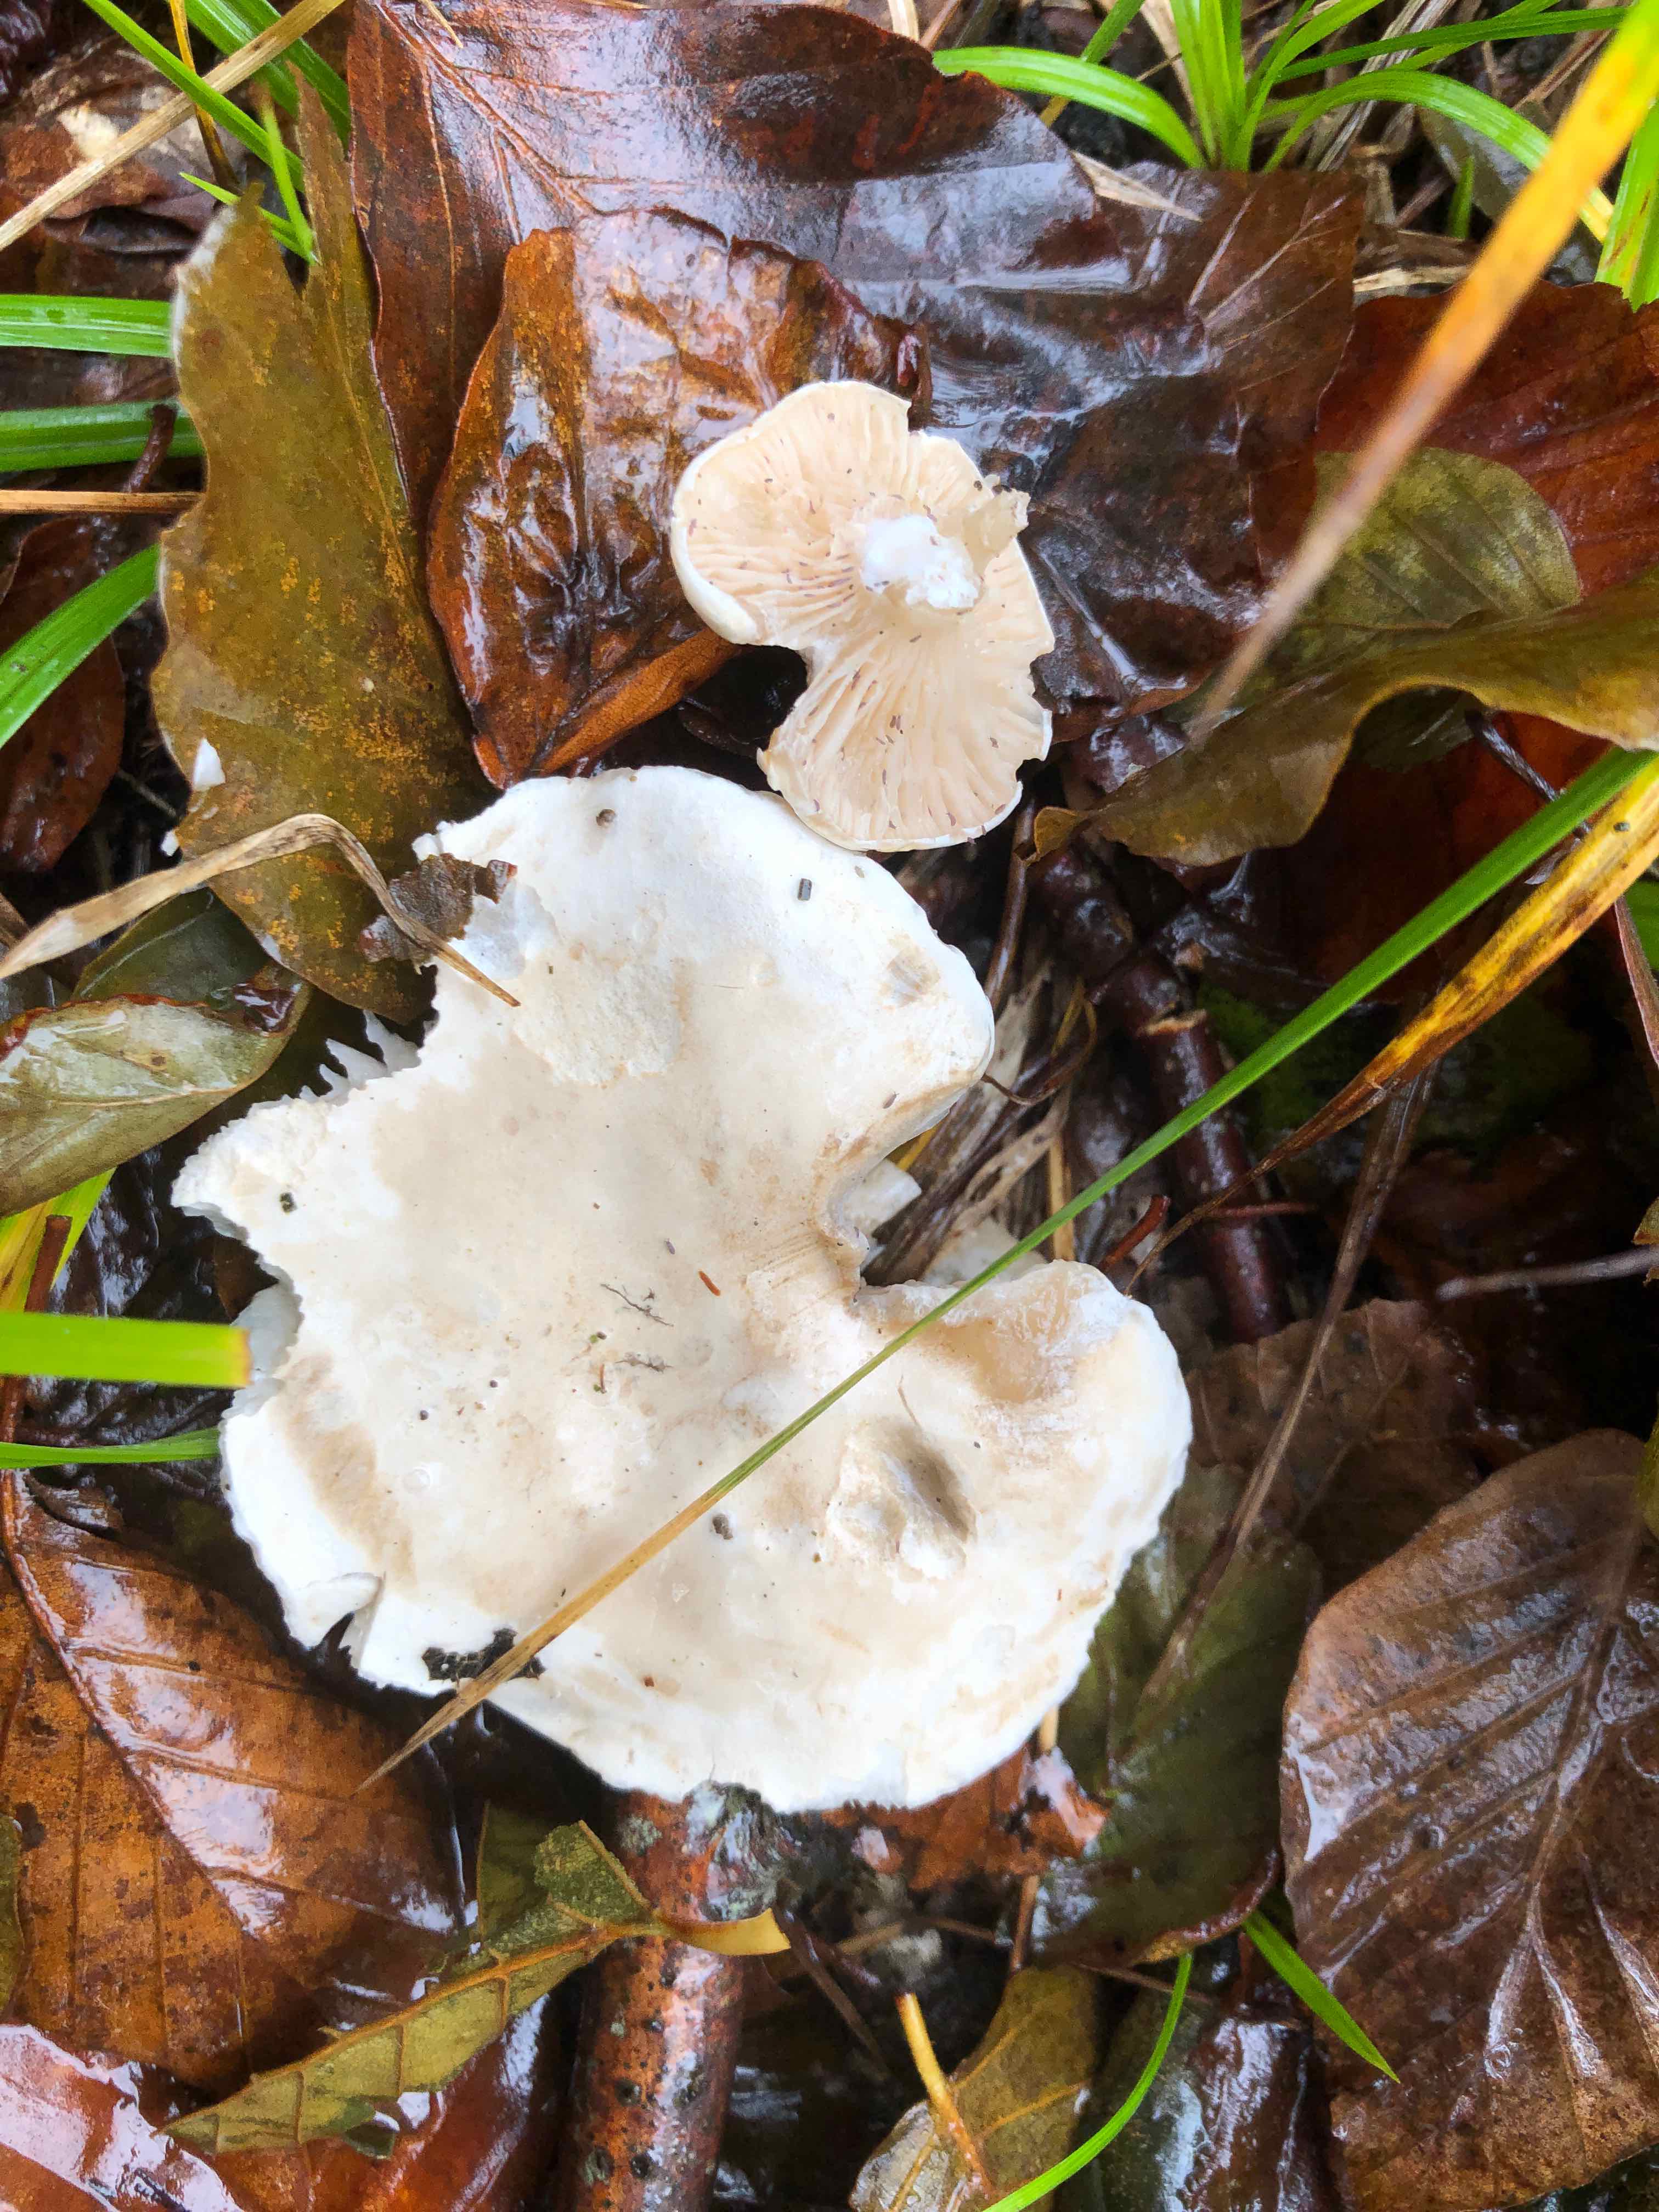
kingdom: Fungi
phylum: Basidiomycota
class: Agaricomycetes
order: Agaricales
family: Entolomataceae
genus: Clitopilus
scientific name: Clitopilus prunulus
